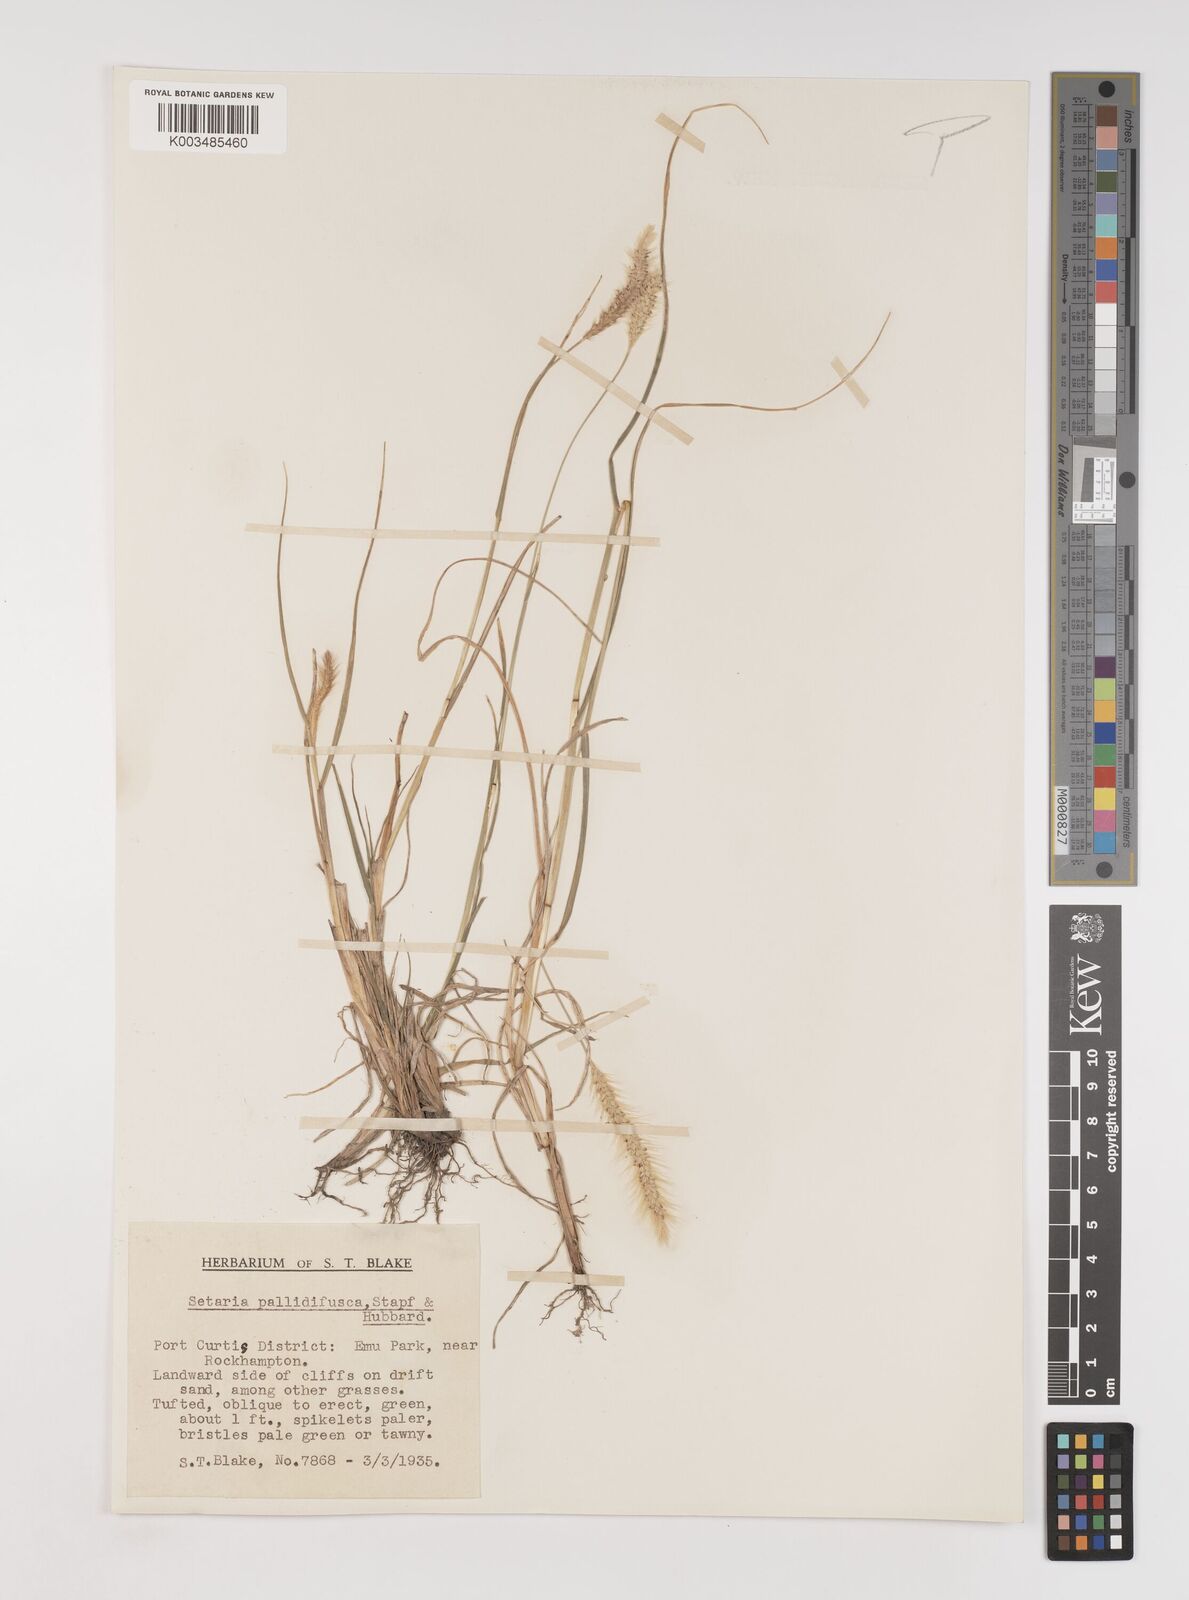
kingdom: Plantae
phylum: Tracheophyta
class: Liliopsida
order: Poales
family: Poaceae
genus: Setaria
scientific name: Setaria pumila
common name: Yellow bristle-grass
